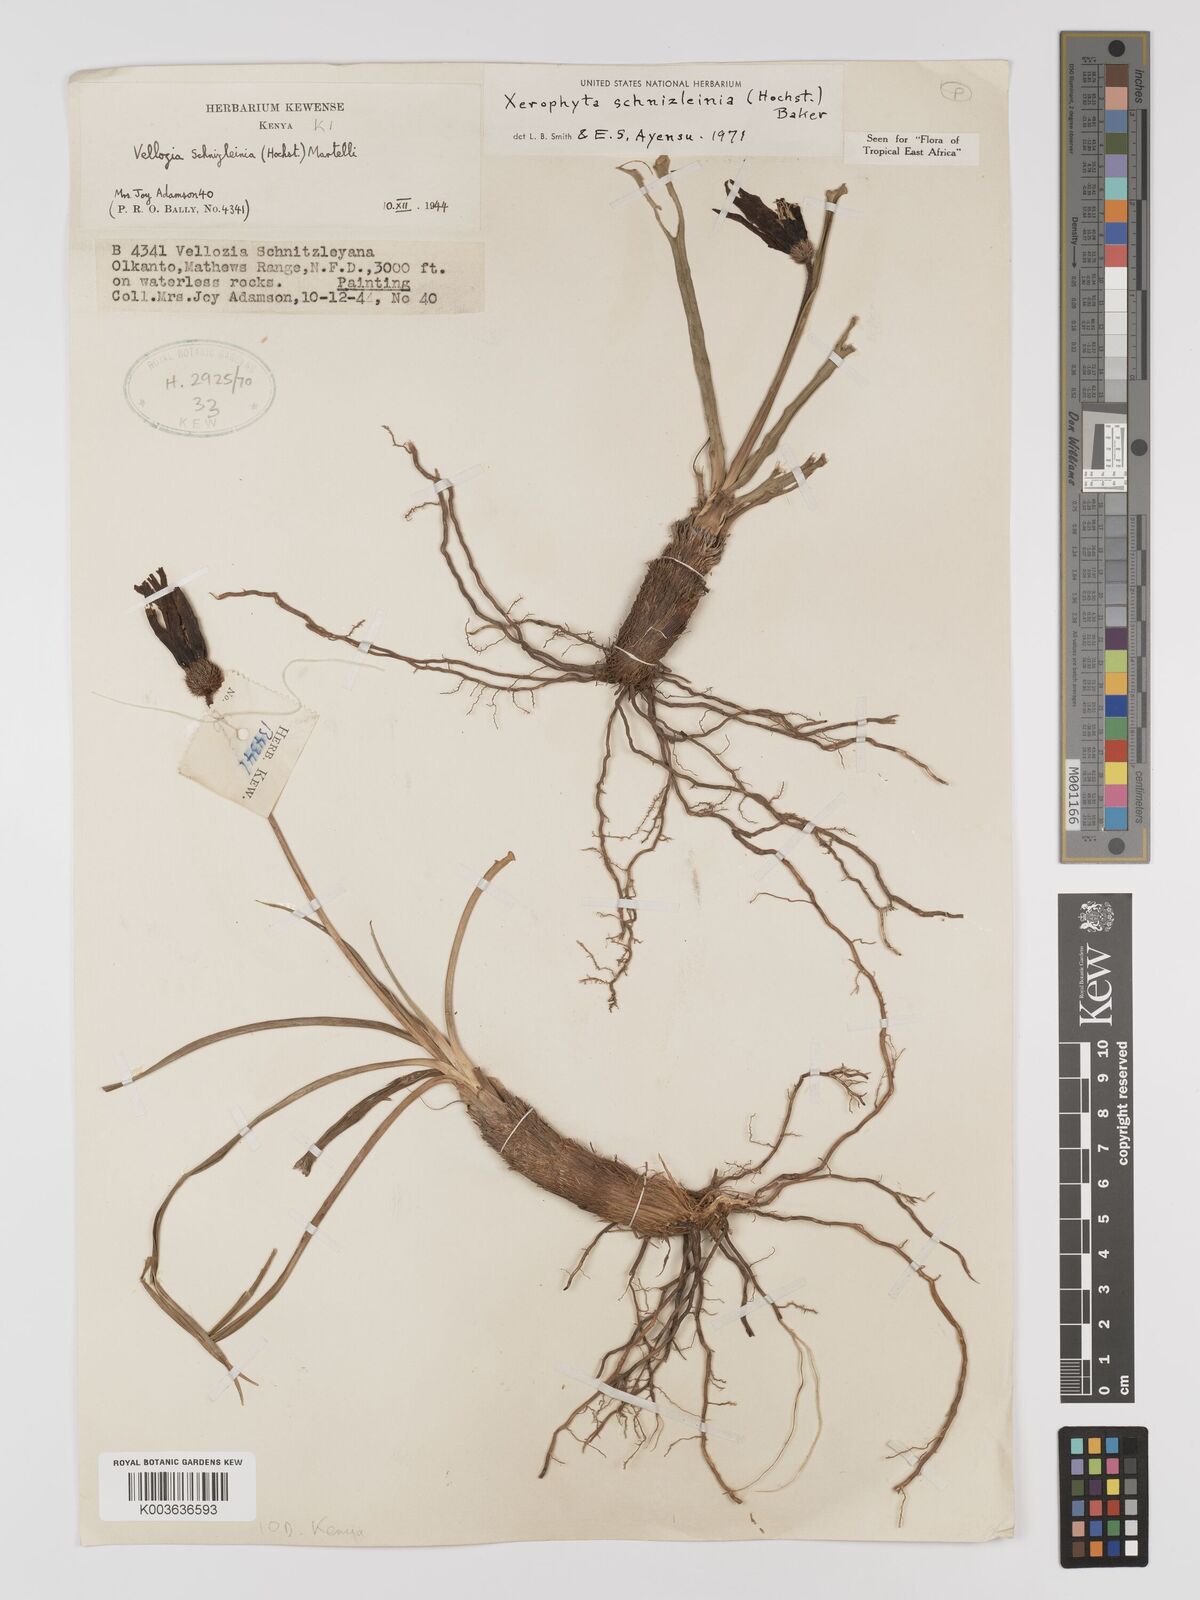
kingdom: Plantae
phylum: Tracheophyta
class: Liliopsida
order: Pandanales
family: Velloziaceae
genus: Xerophyta
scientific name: Xerophyta schnizleinia
